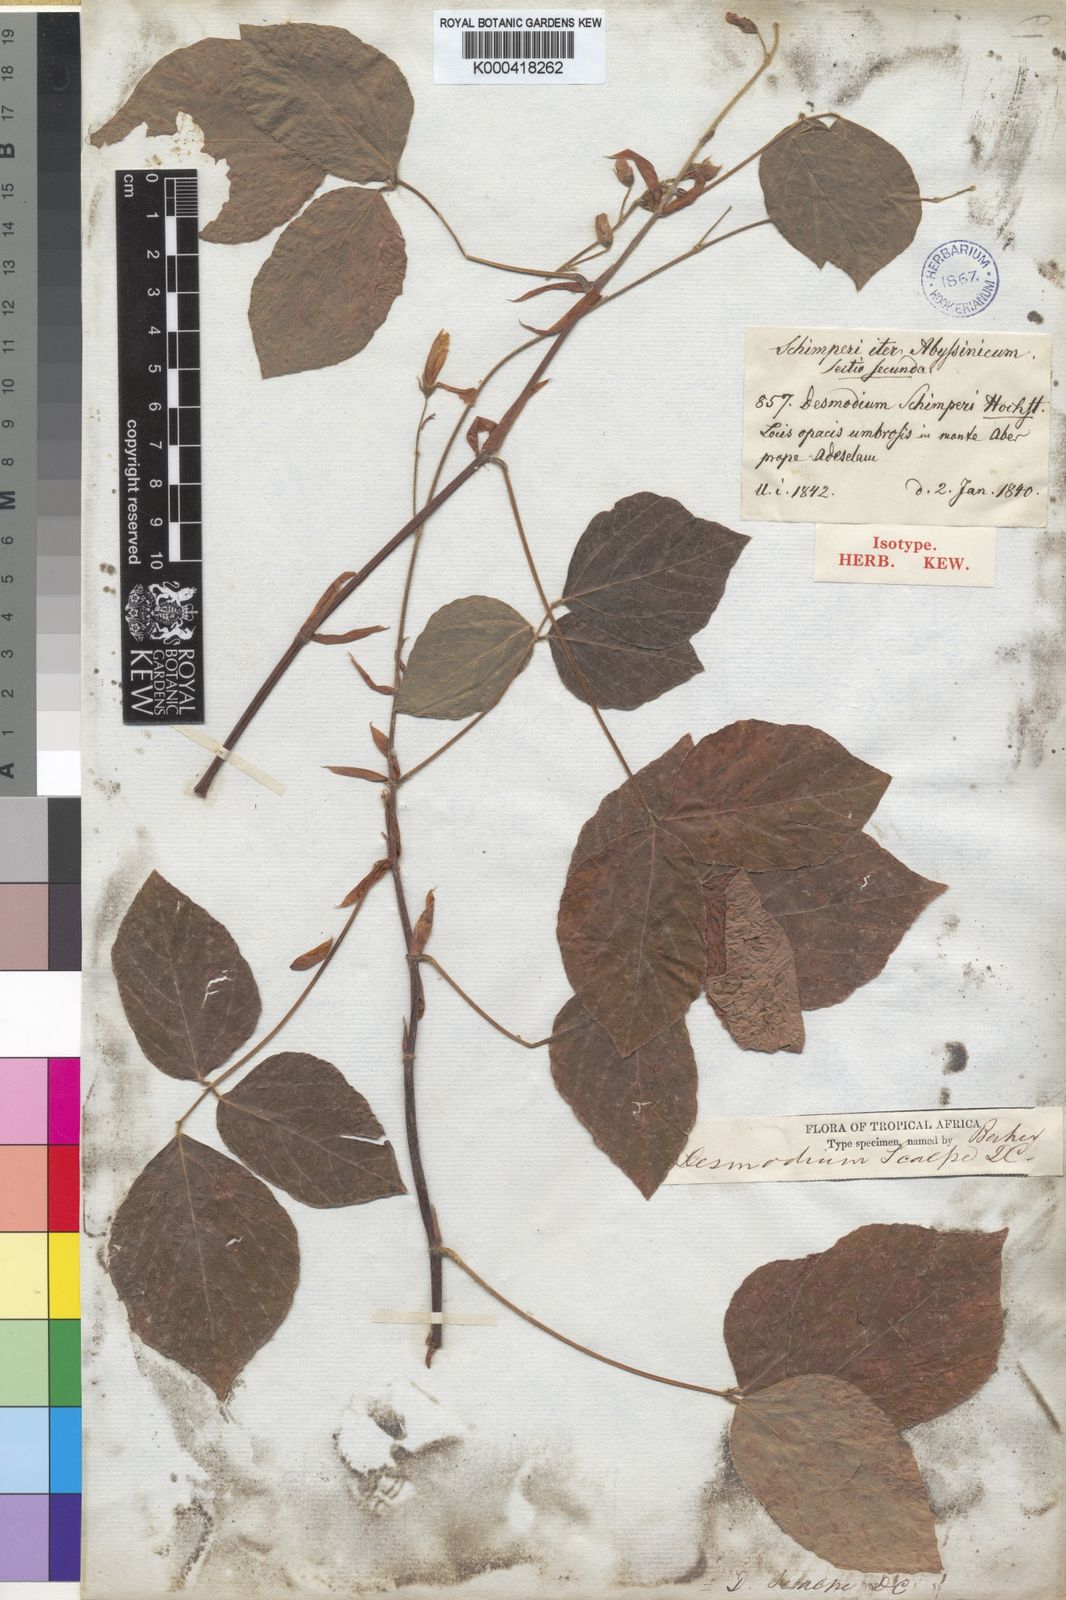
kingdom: Plantae
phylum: Tracheophyta
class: Magnoliopsida
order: Fabales
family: Fabaceae
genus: Desmodium
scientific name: Desmodium
